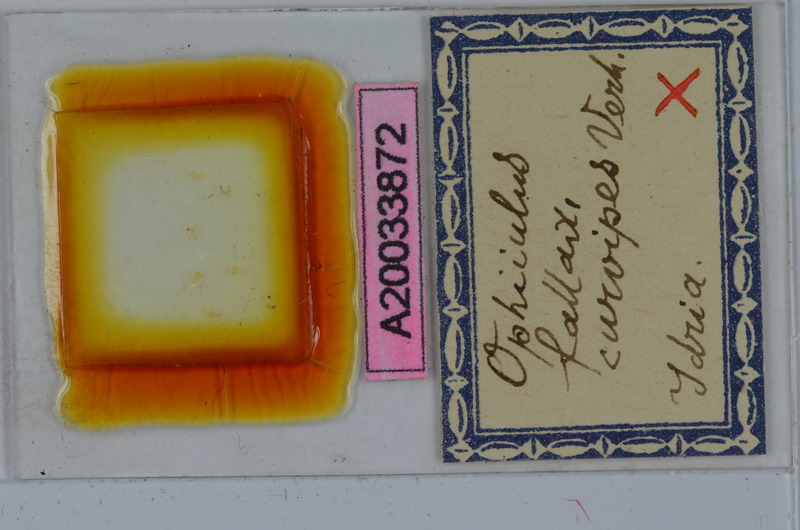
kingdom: Animalia
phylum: Arthropoda
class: Diplopoda
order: Julida
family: Julidae
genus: Ophiiulus
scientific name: Ophiiulus fallax
